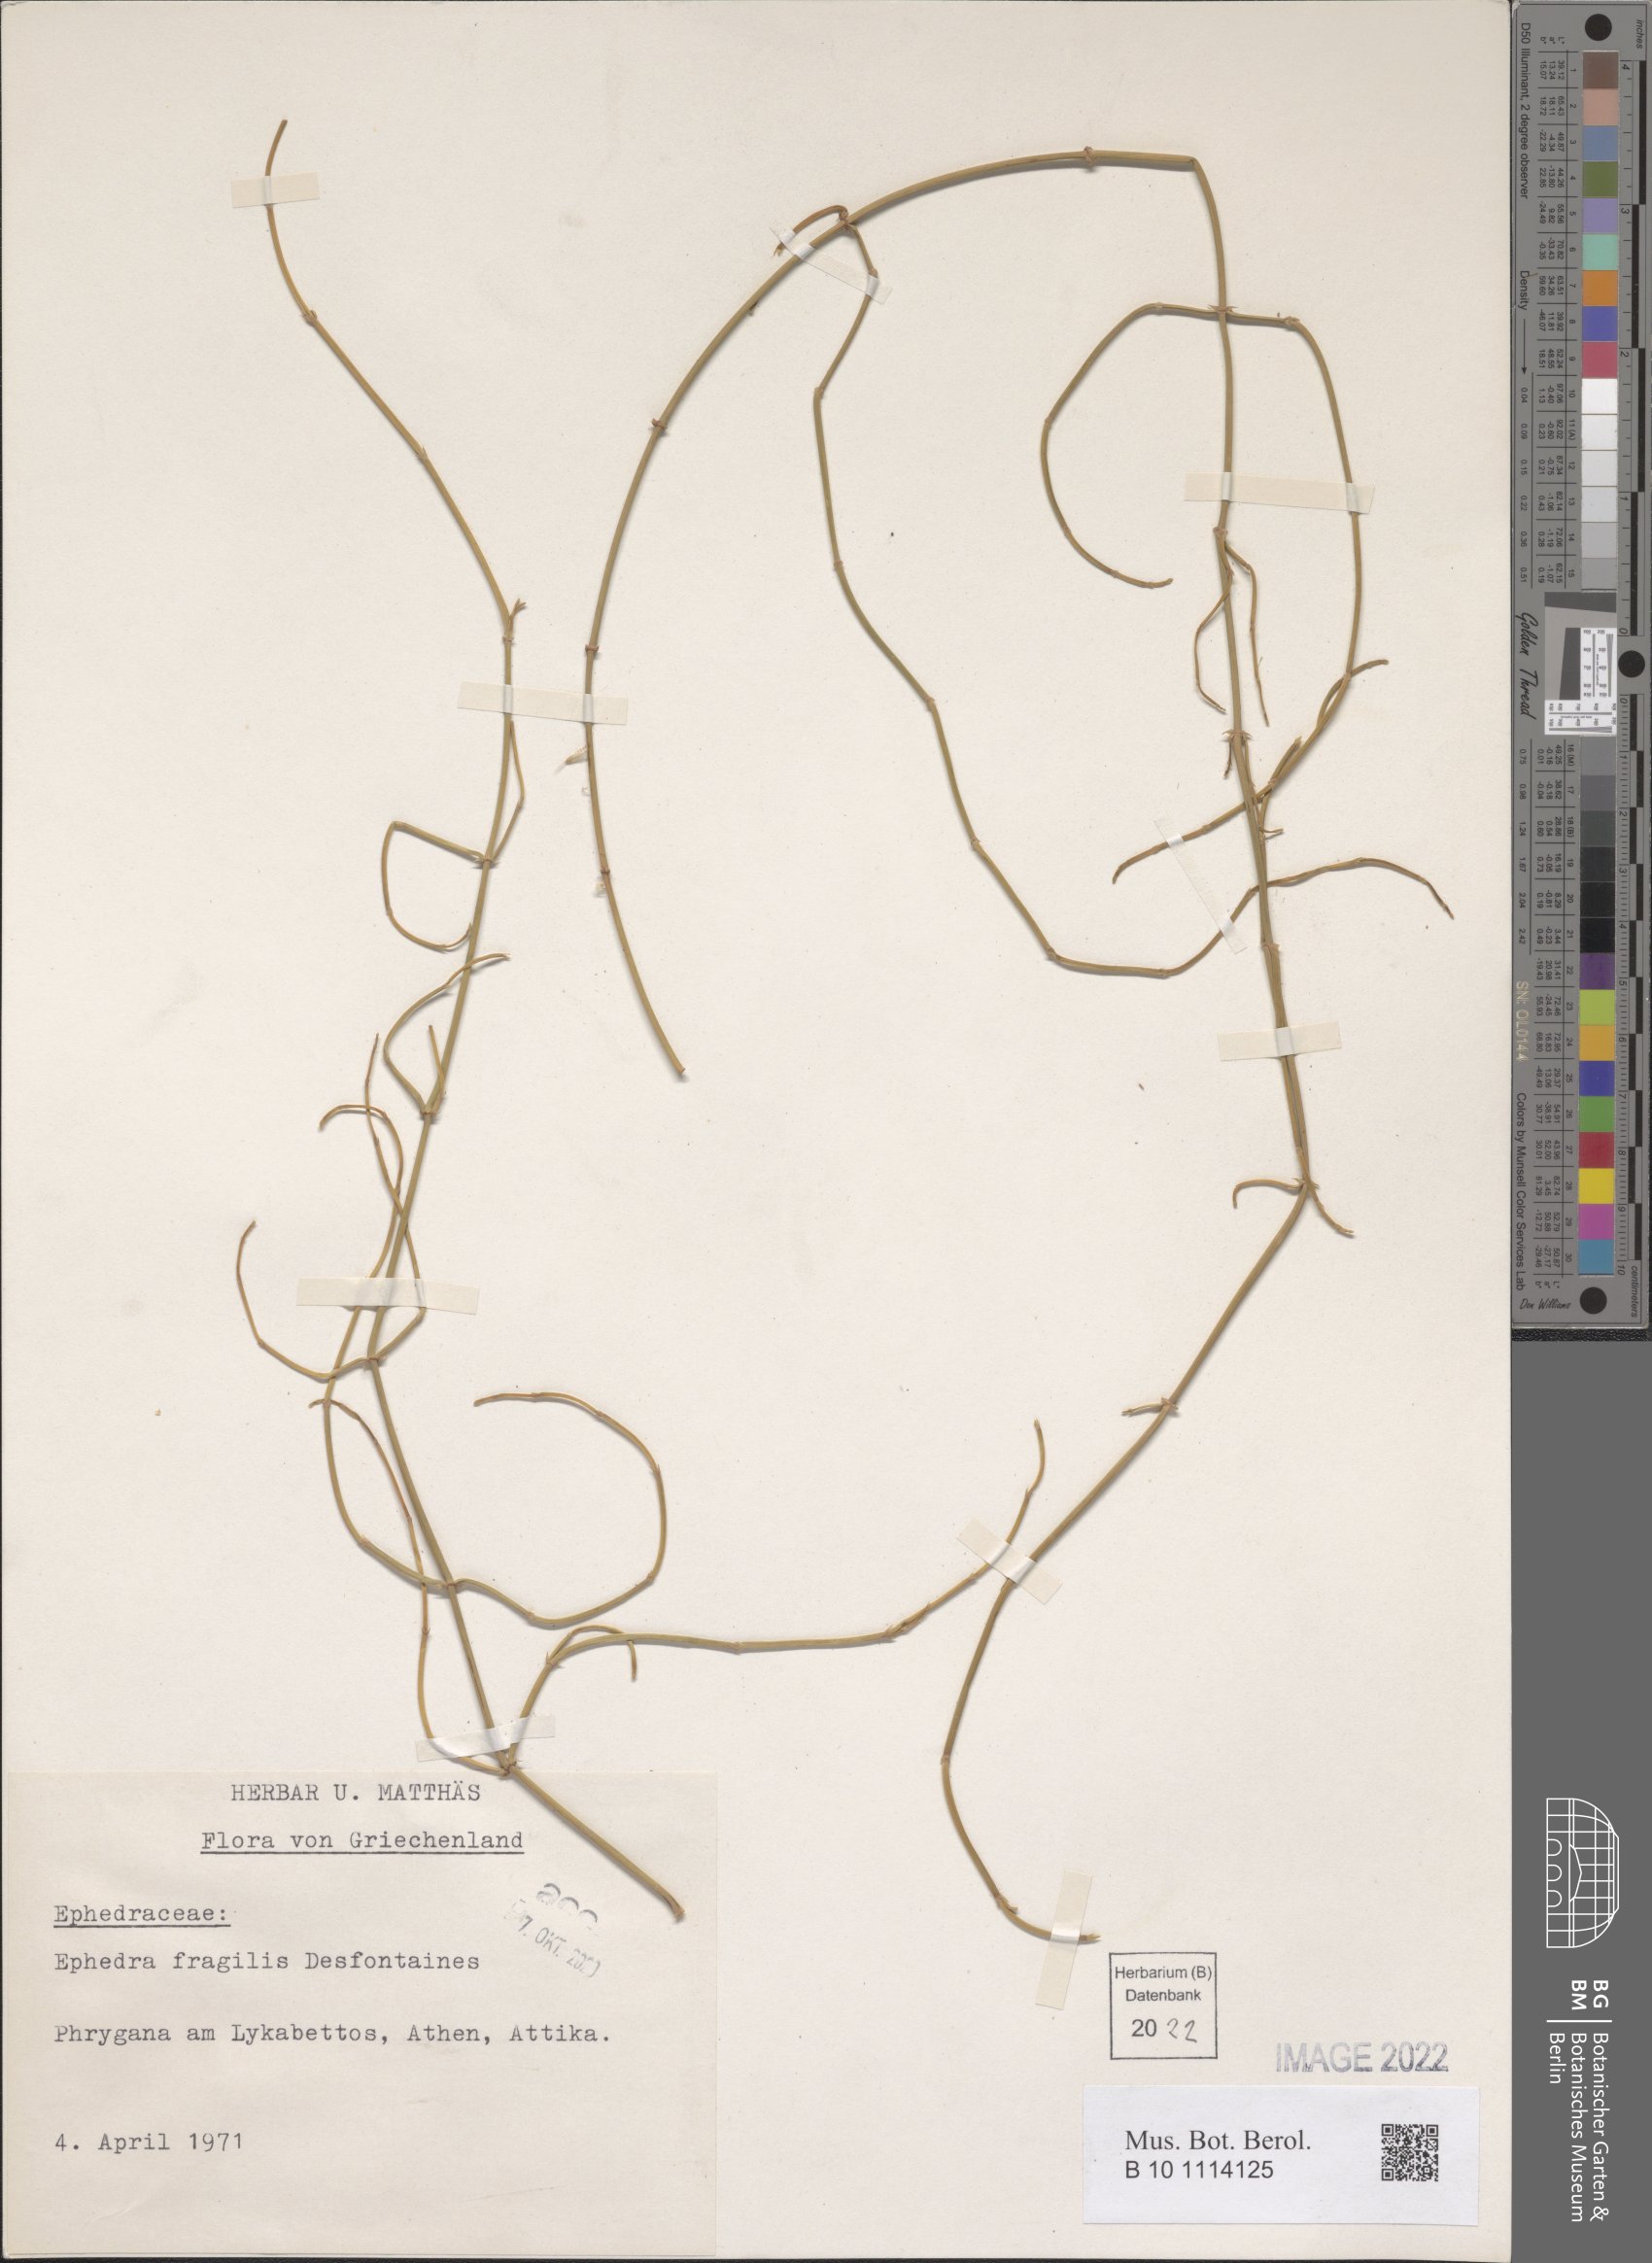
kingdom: Plantae
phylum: Tracheophyta
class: Gnetopsida
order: Ephedrales
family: Ephedraceae
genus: Ephedra
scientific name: Ephedra fragilis
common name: Joint pine
